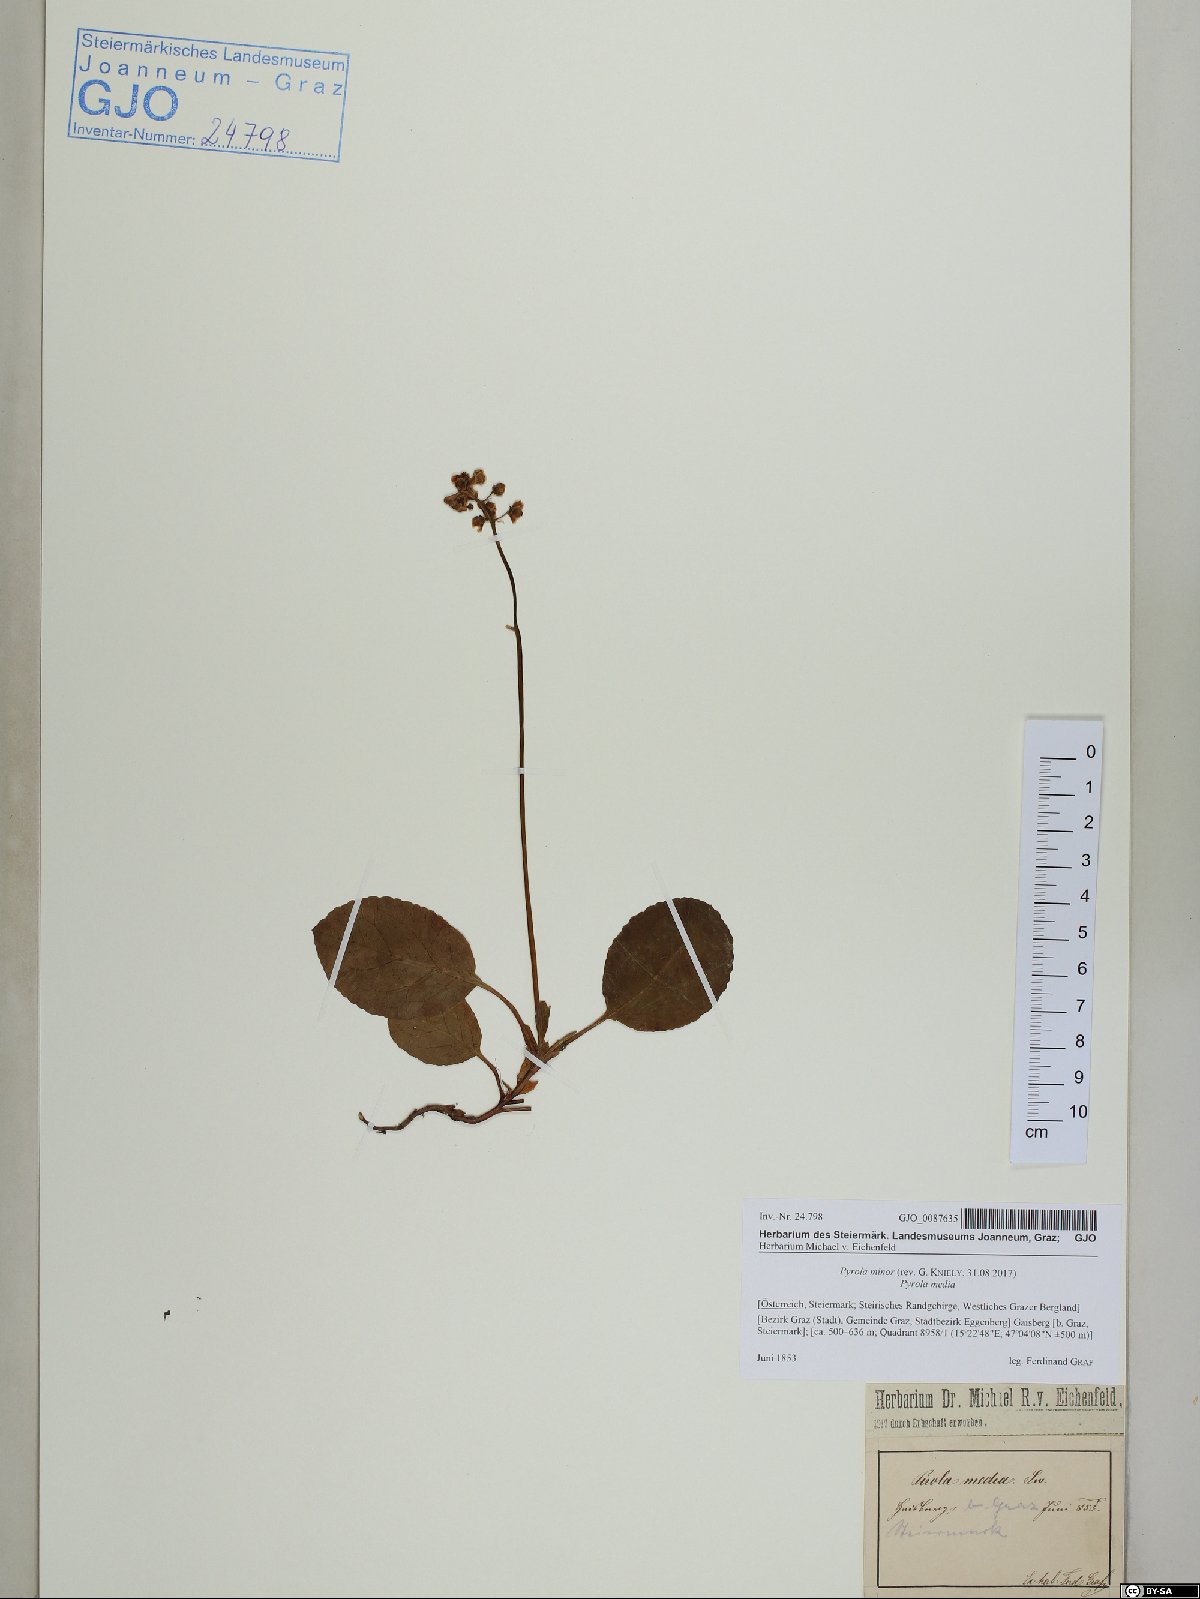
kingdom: Plantae
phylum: Tracheophyta
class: Magnoliopsida
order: Ericales
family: Ericaceae
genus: Pyrola
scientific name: Pyrola minor
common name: Common wintergreen
